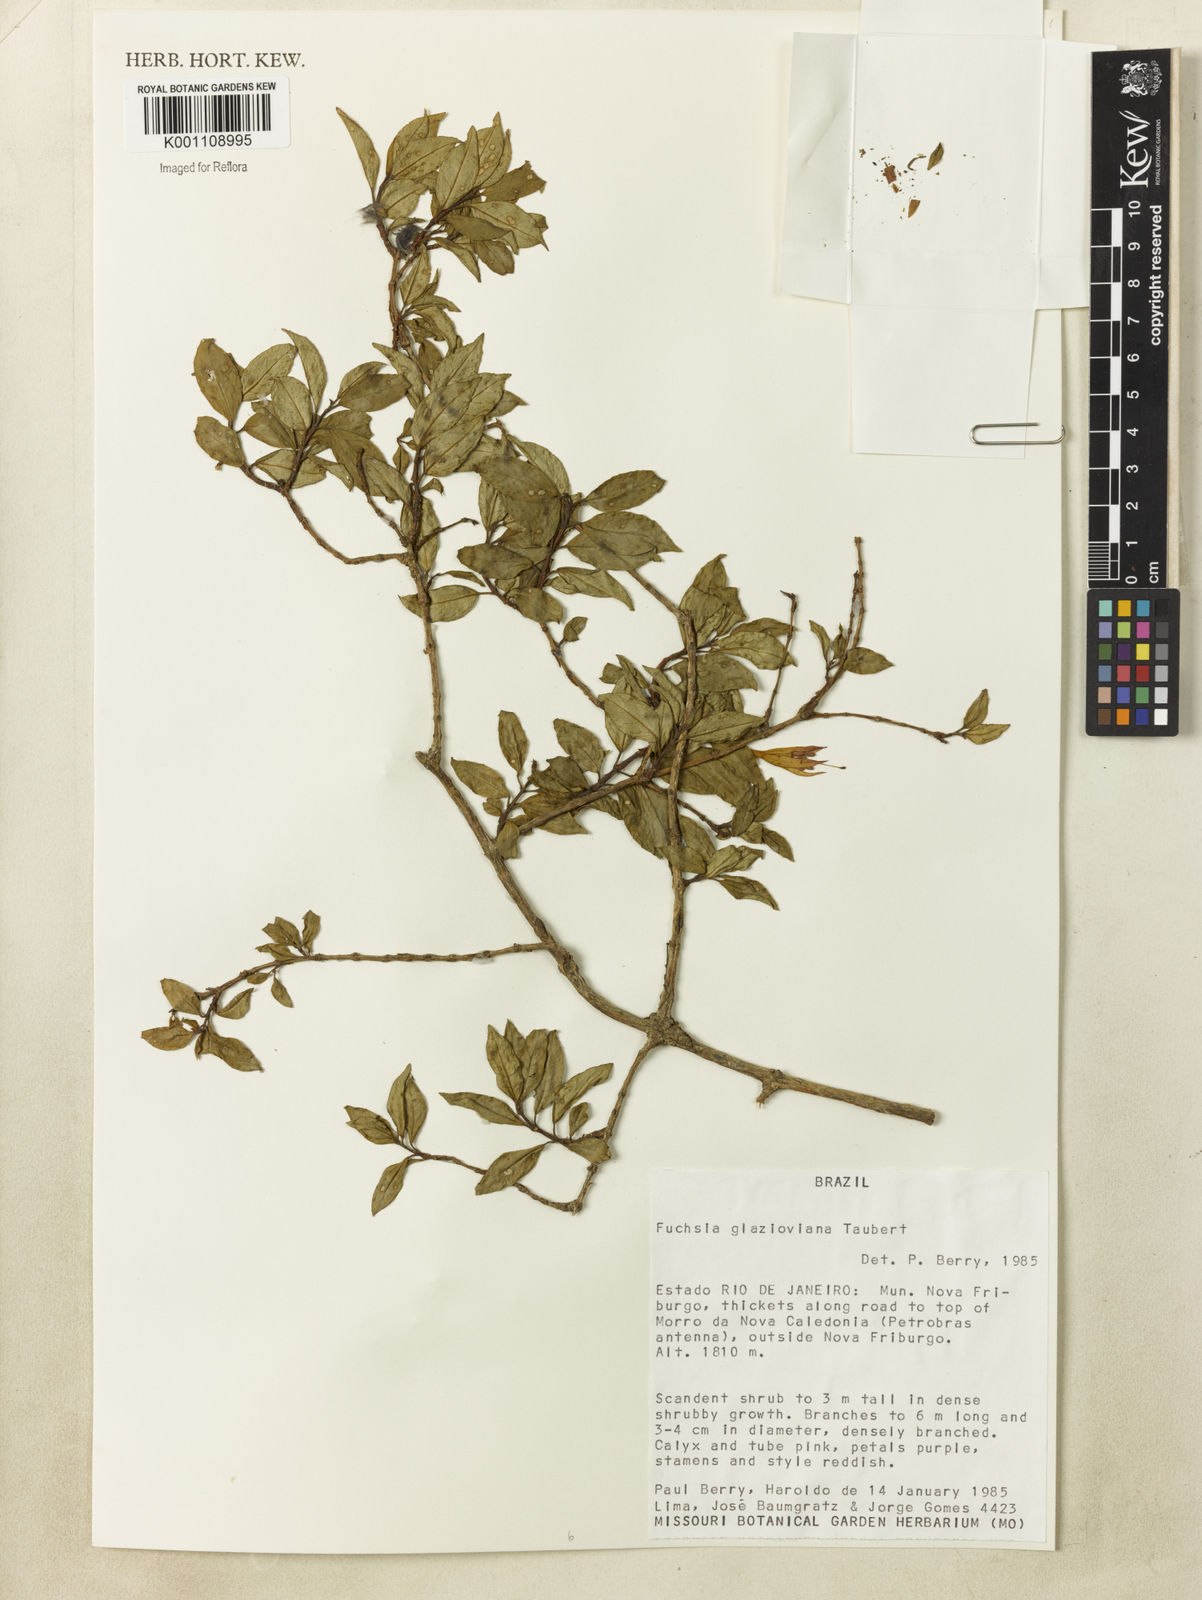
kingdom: Plantae
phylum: Tracheophyta
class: Magnoliopsida
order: Myrtales
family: Onagraceae
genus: Fuchsia
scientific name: Fuchsia glazioviana
